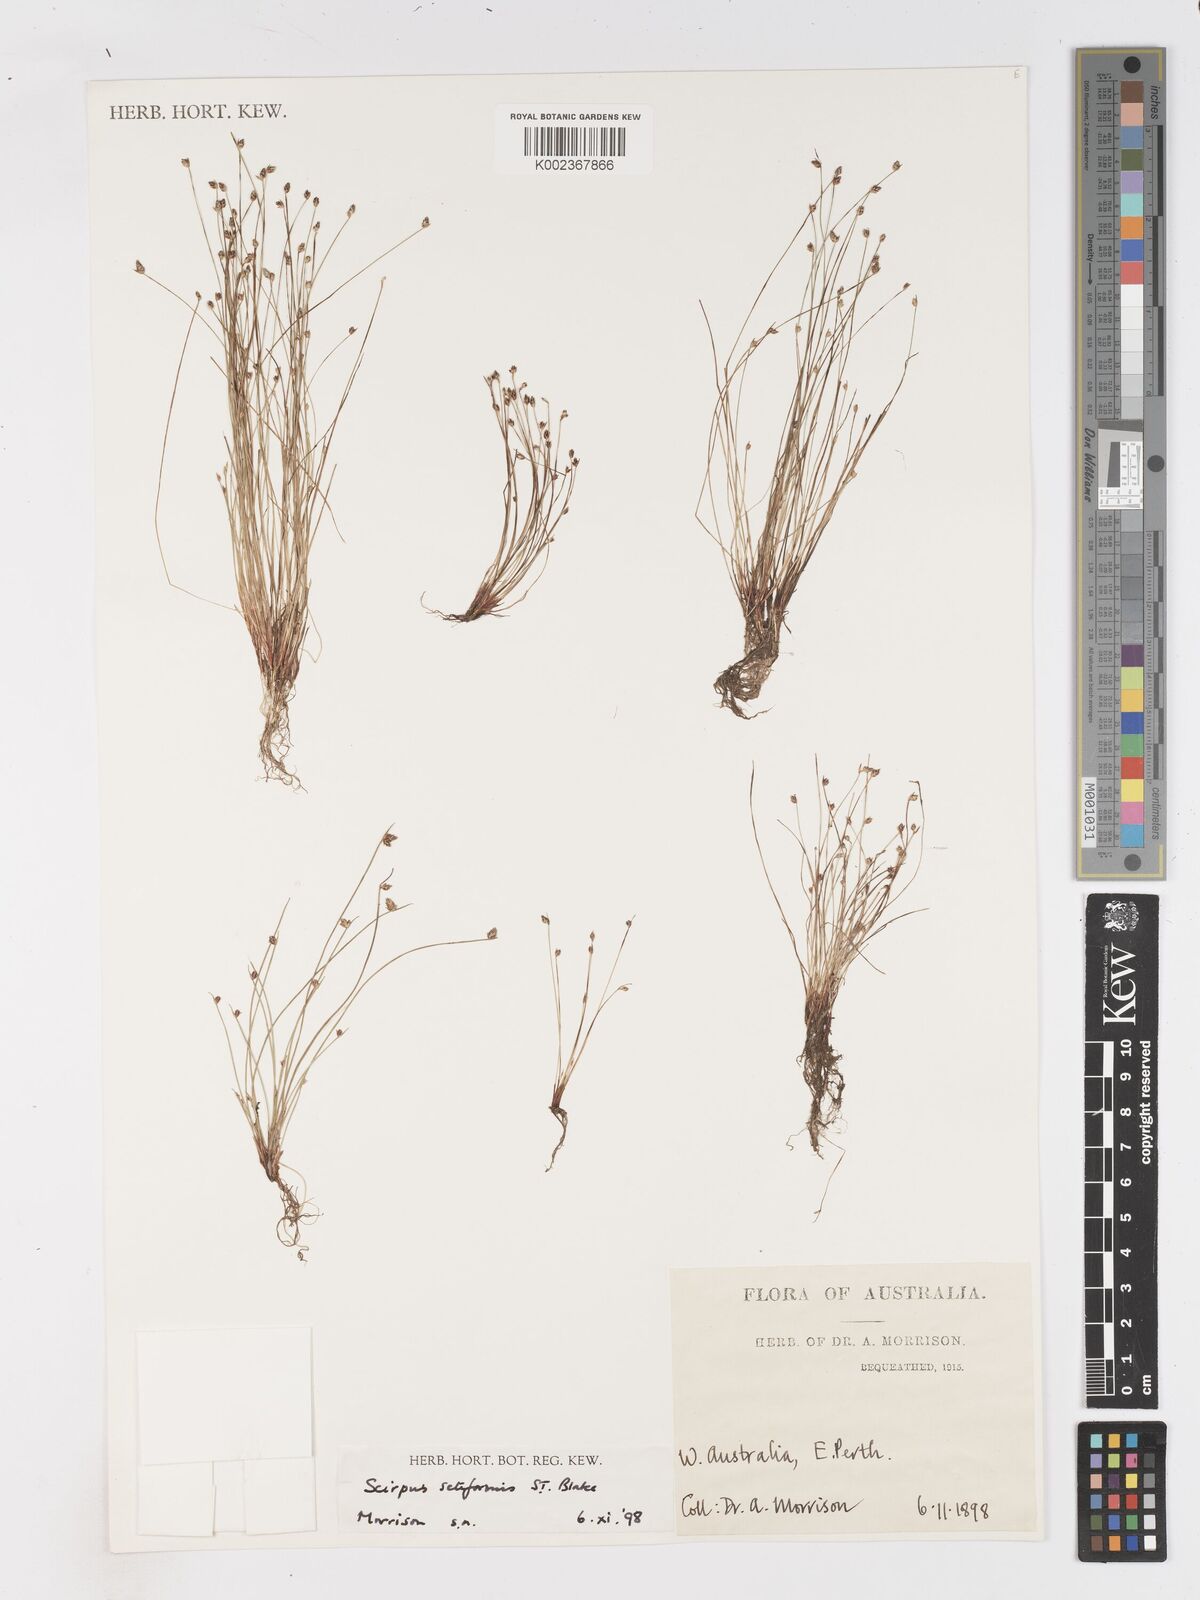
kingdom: Plantae
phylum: Tracheophyta
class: Liliopsida
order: Poales
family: Cyperaceae
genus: Isolepis
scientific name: Isolepis cernua
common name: Slender club-rush
